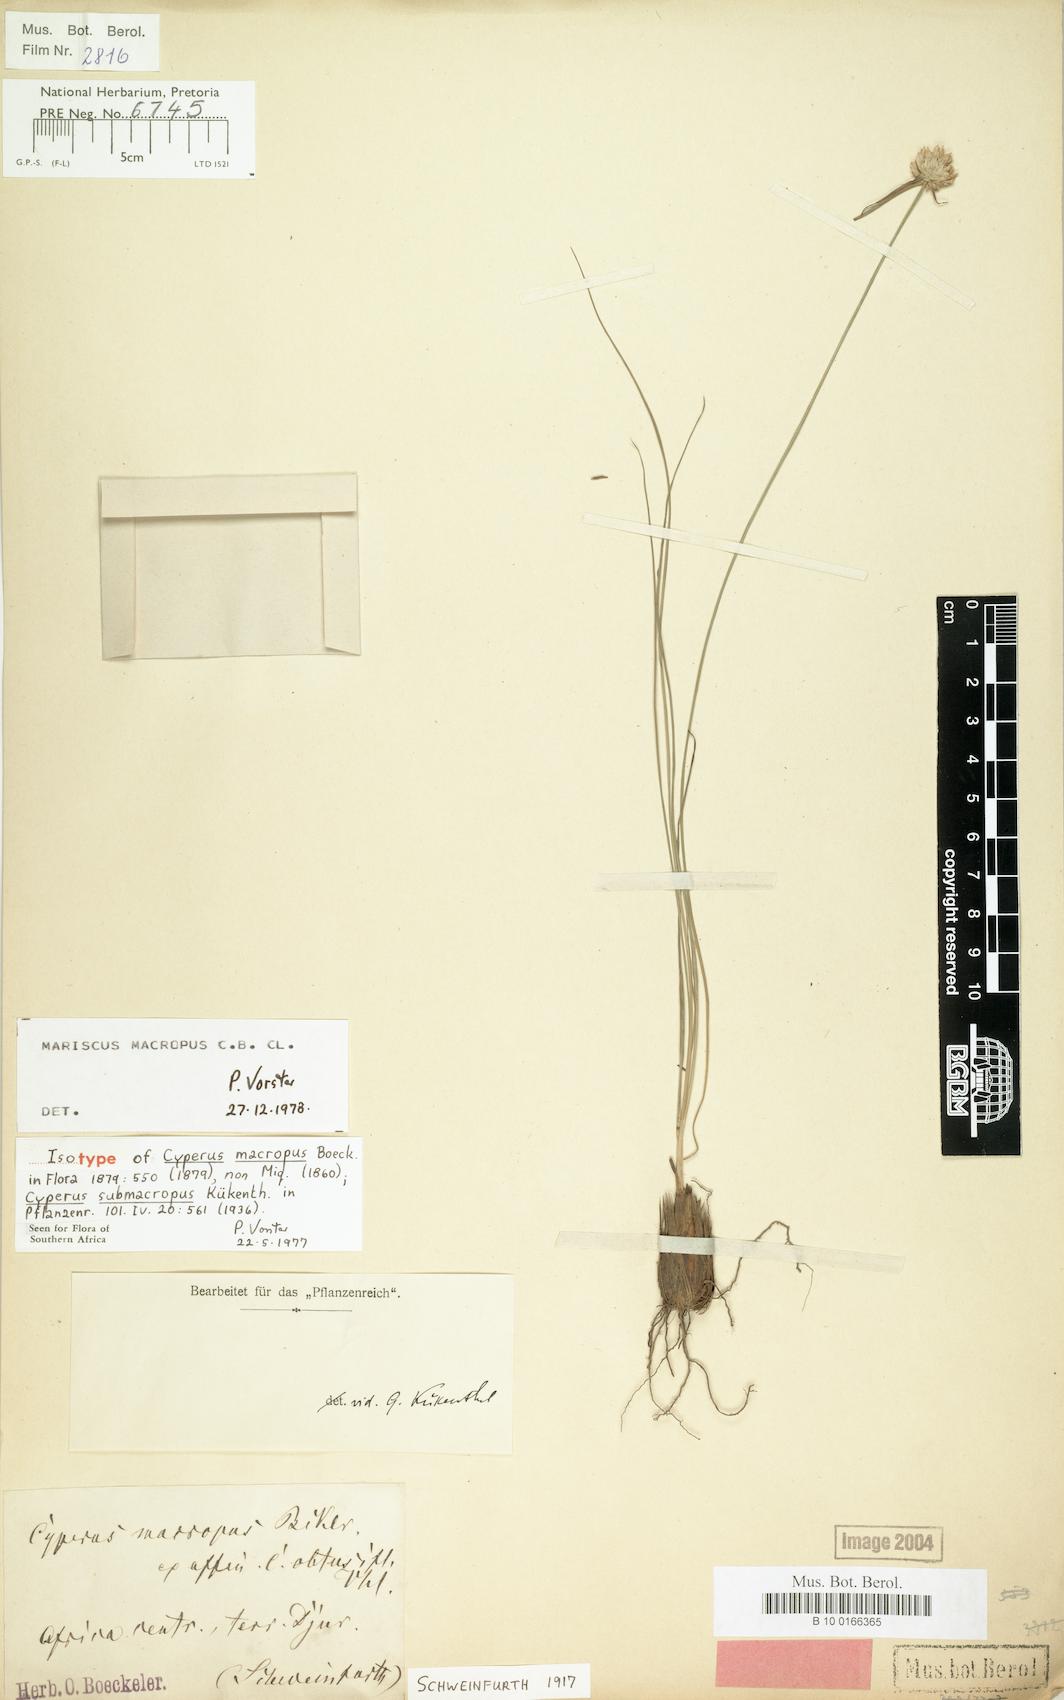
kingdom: Plantae
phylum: Tracheophyta
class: Liliopsida
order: Poales
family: Cyperaceae
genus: Cyperus
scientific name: Cyperus mollipes
